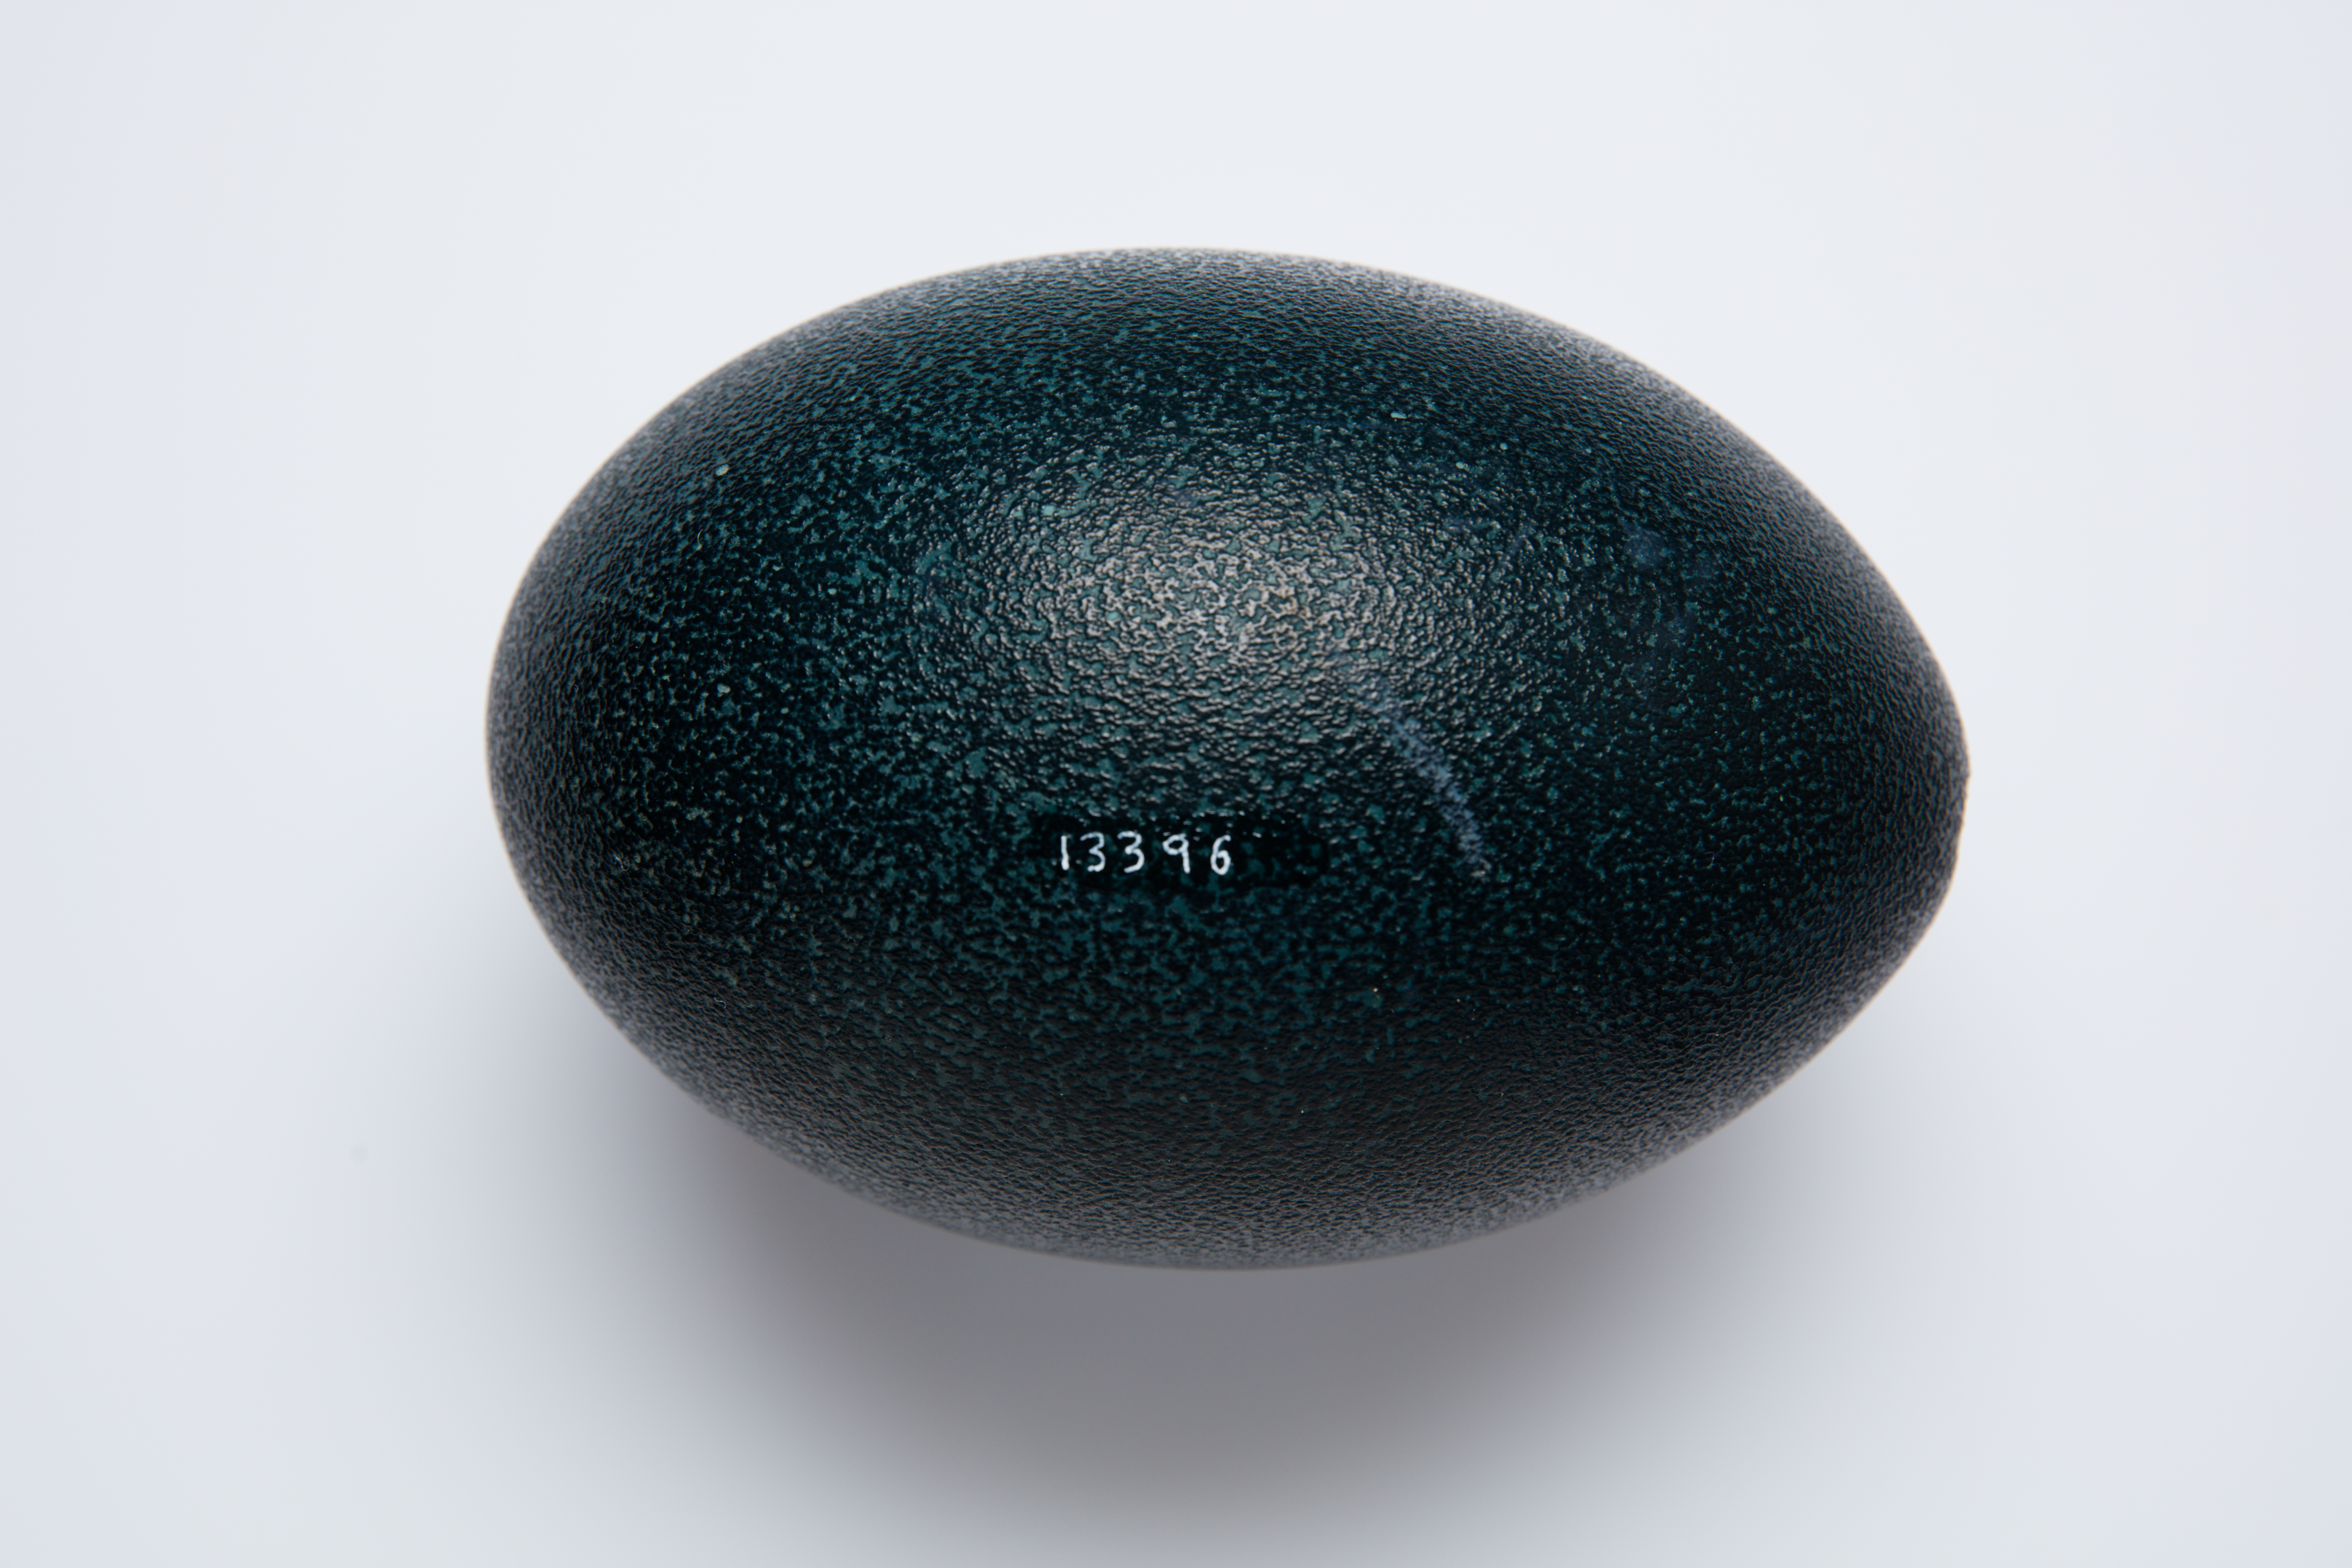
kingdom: Animalia
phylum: Chordata
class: Aves
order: Casuariiformes
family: Dromaiidae
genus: Dromaius
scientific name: Dromaius novaehollandiae
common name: Emu
